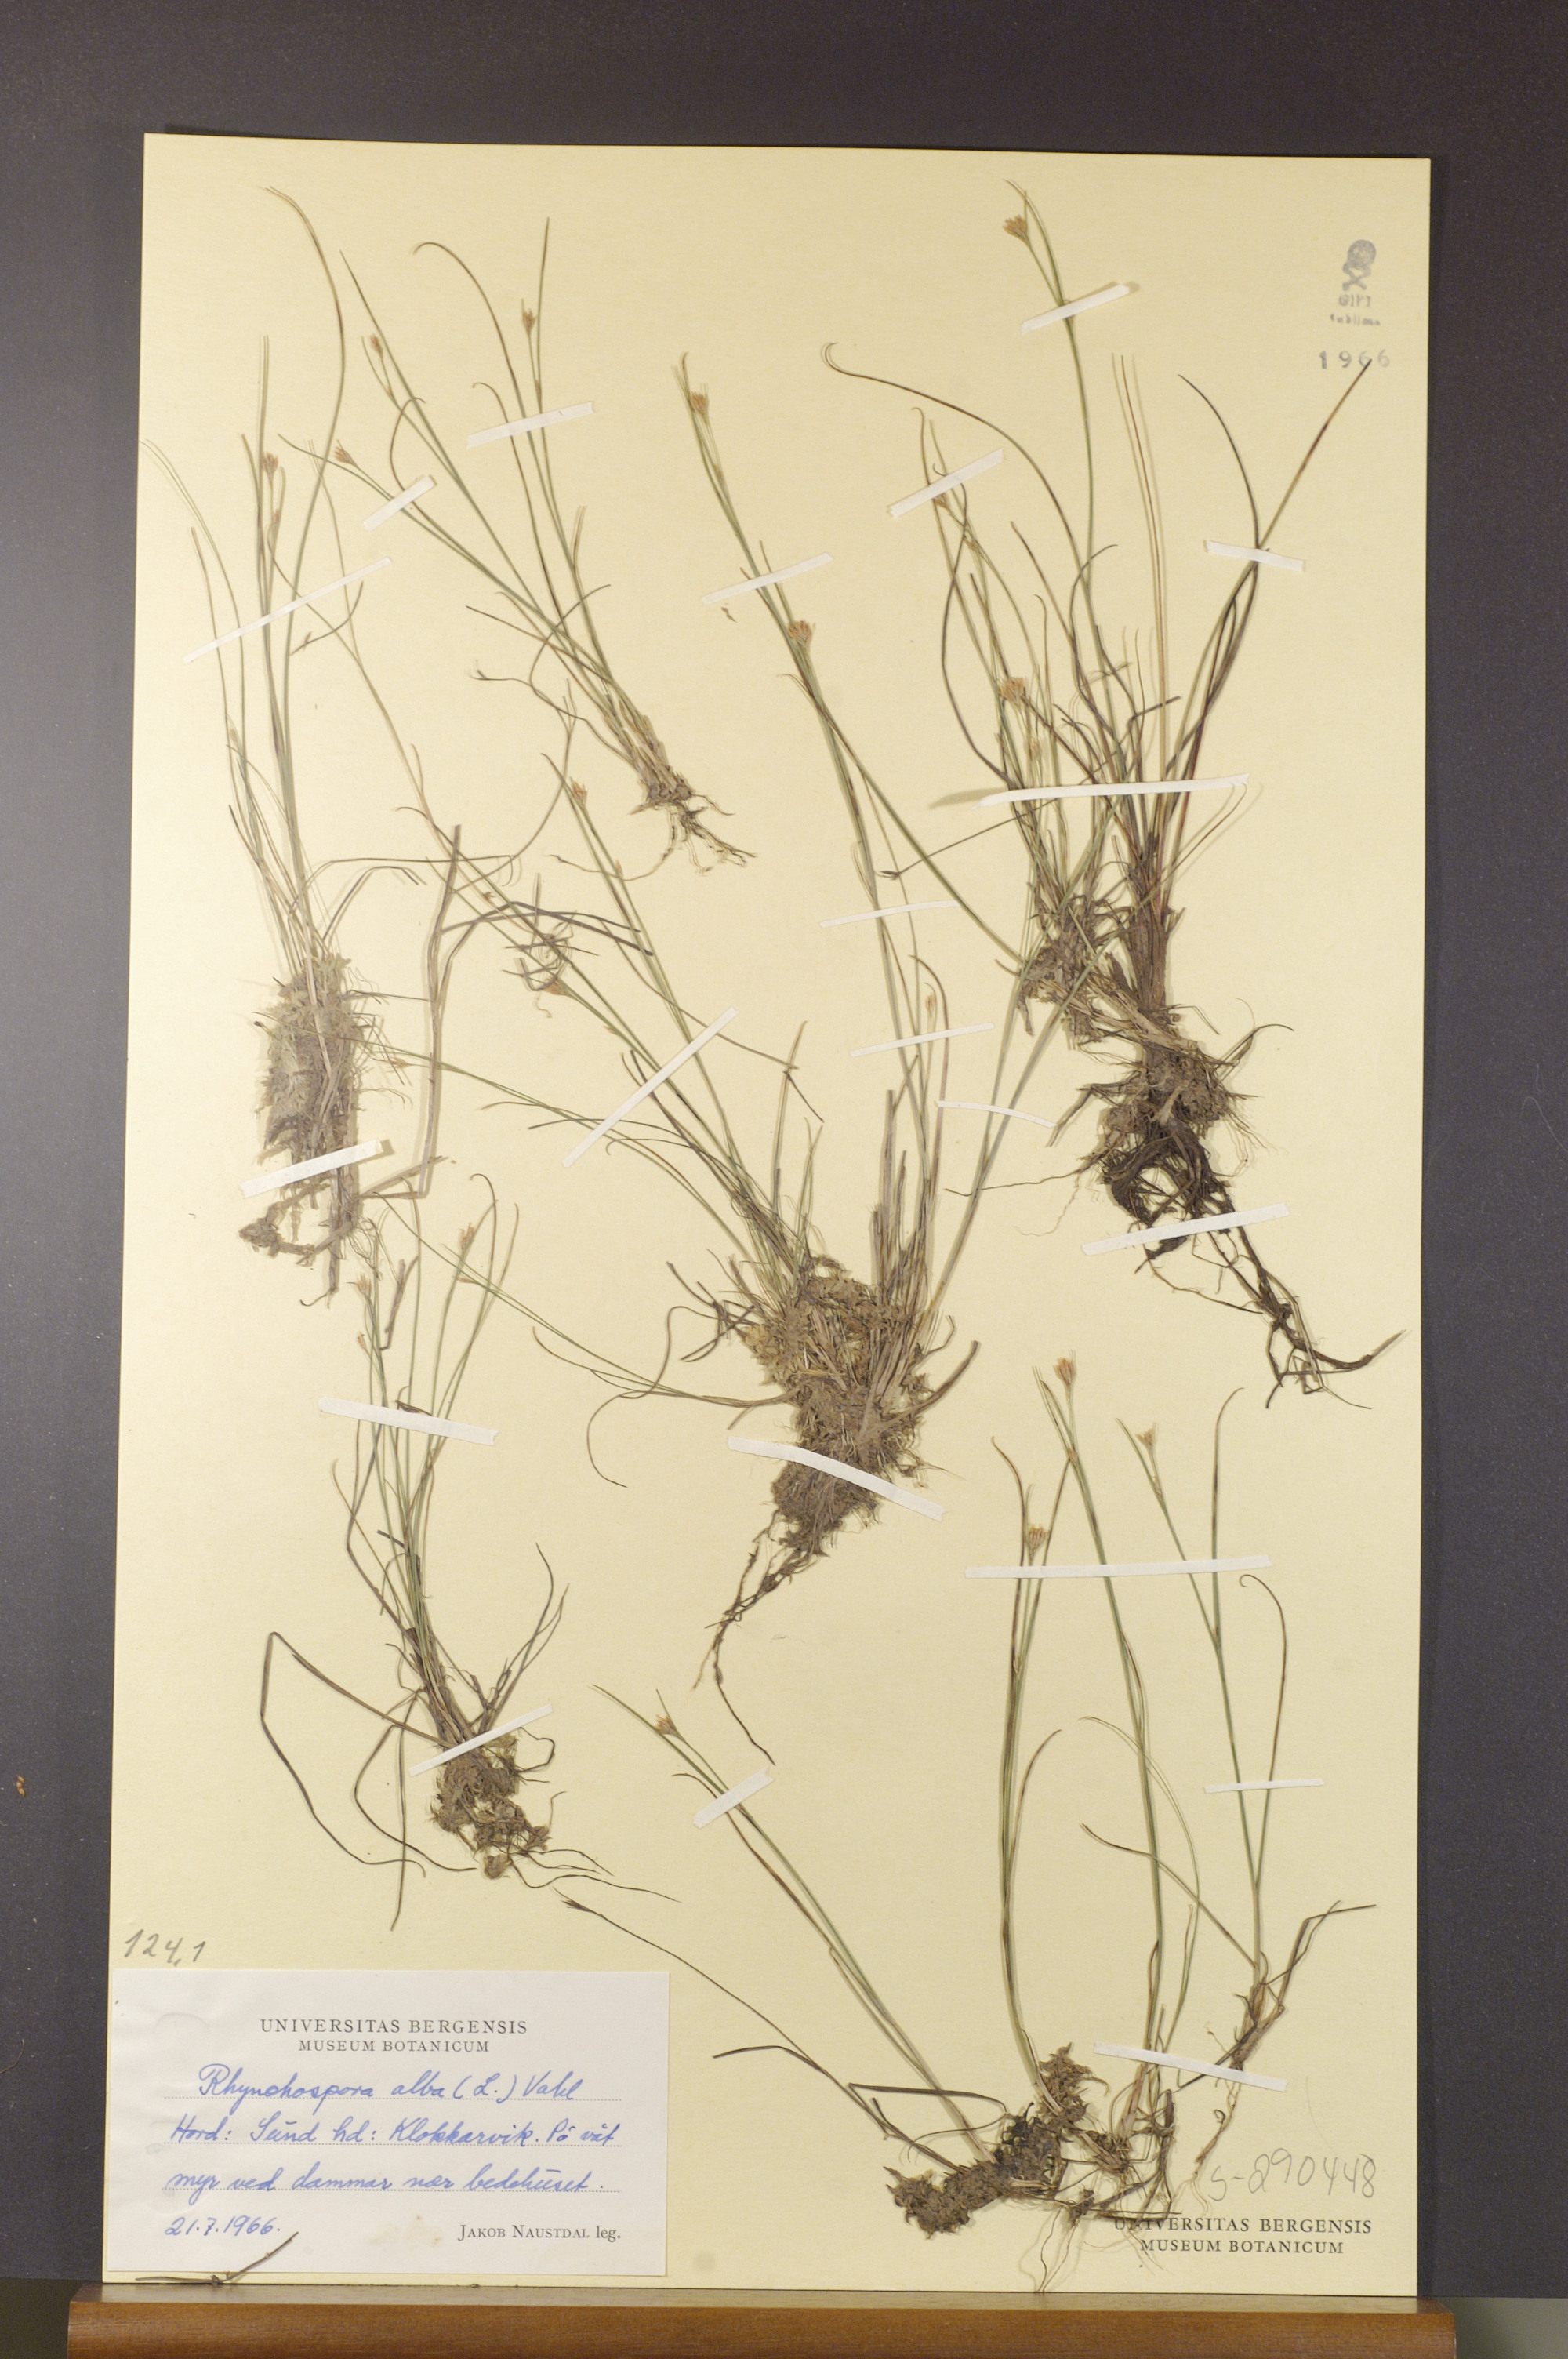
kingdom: Plantae
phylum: Tracheophyta
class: Liliopsida
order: Poales
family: Cyperaceae
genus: Rhynchospora
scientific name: Rhynchospora alba
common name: White beak-sedge
